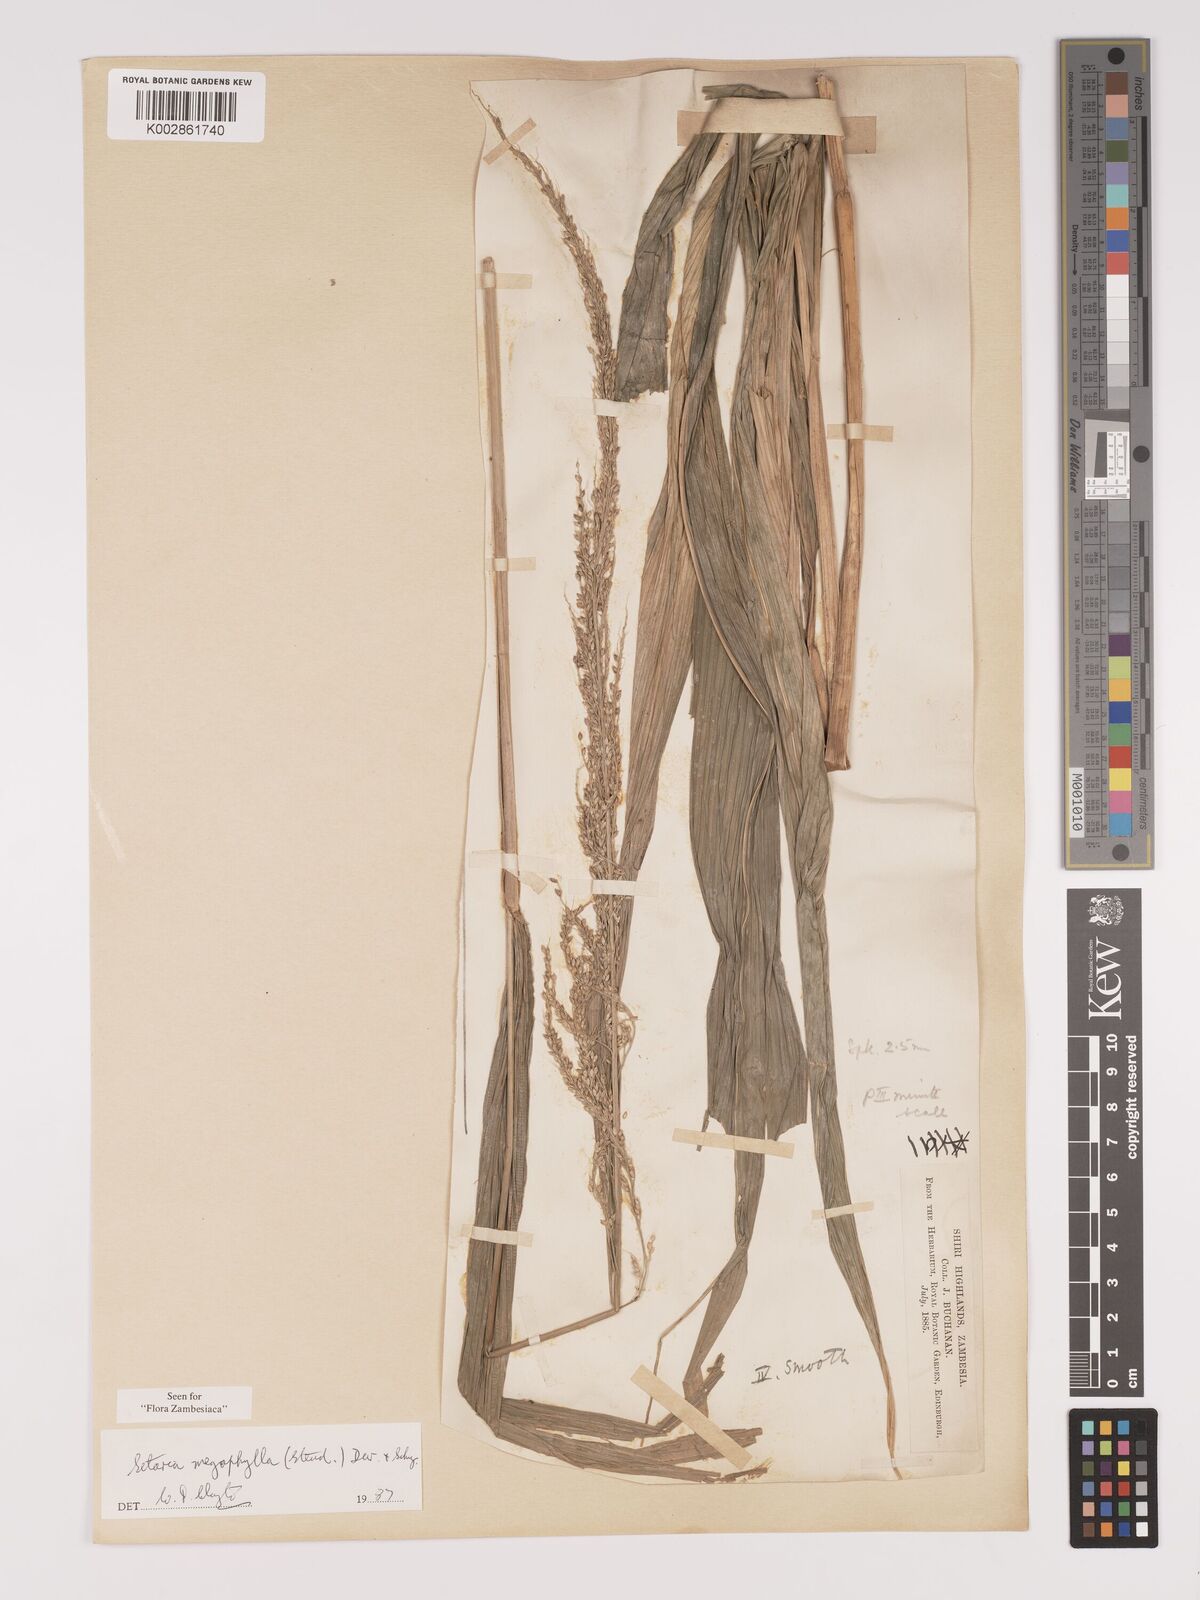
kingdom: Plantae
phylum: Tracheophyta
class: Liliopsida
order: Poales
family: Poaceae
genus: Setaria
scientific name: Setaria megaphylla
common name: Bigleaf bristlegrass
